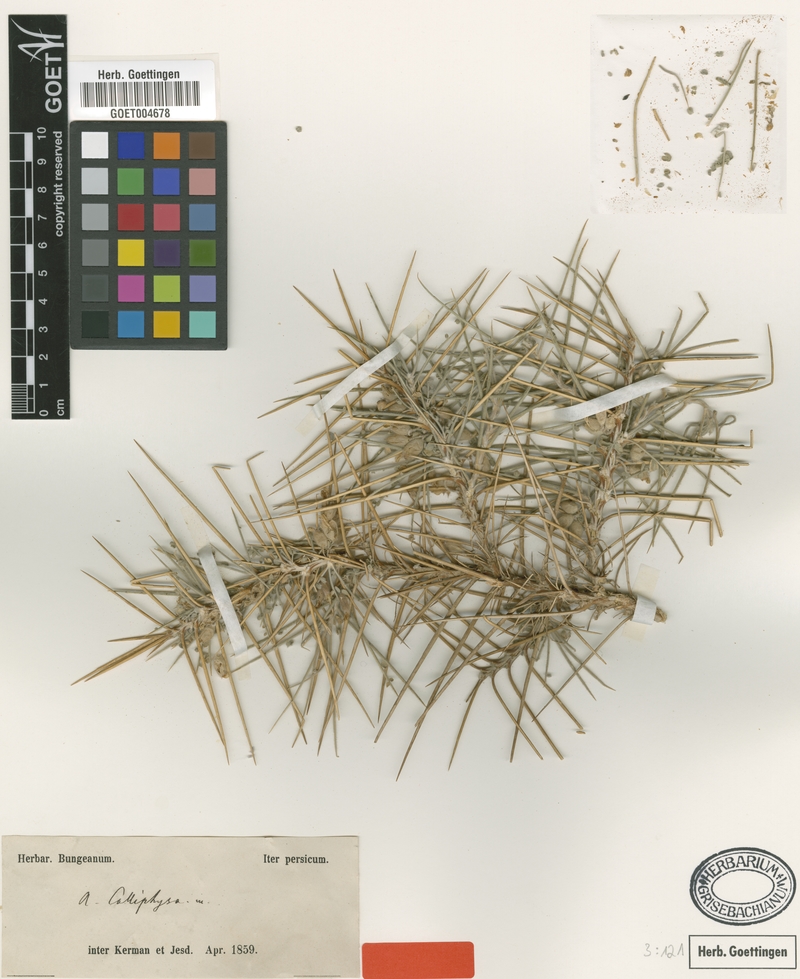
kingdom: Plantae
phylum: Tracheophyta
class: Magnoliopsida
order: Fabales
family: Fabaceae
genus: Astragalus
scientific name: Astragalus calliphysa
